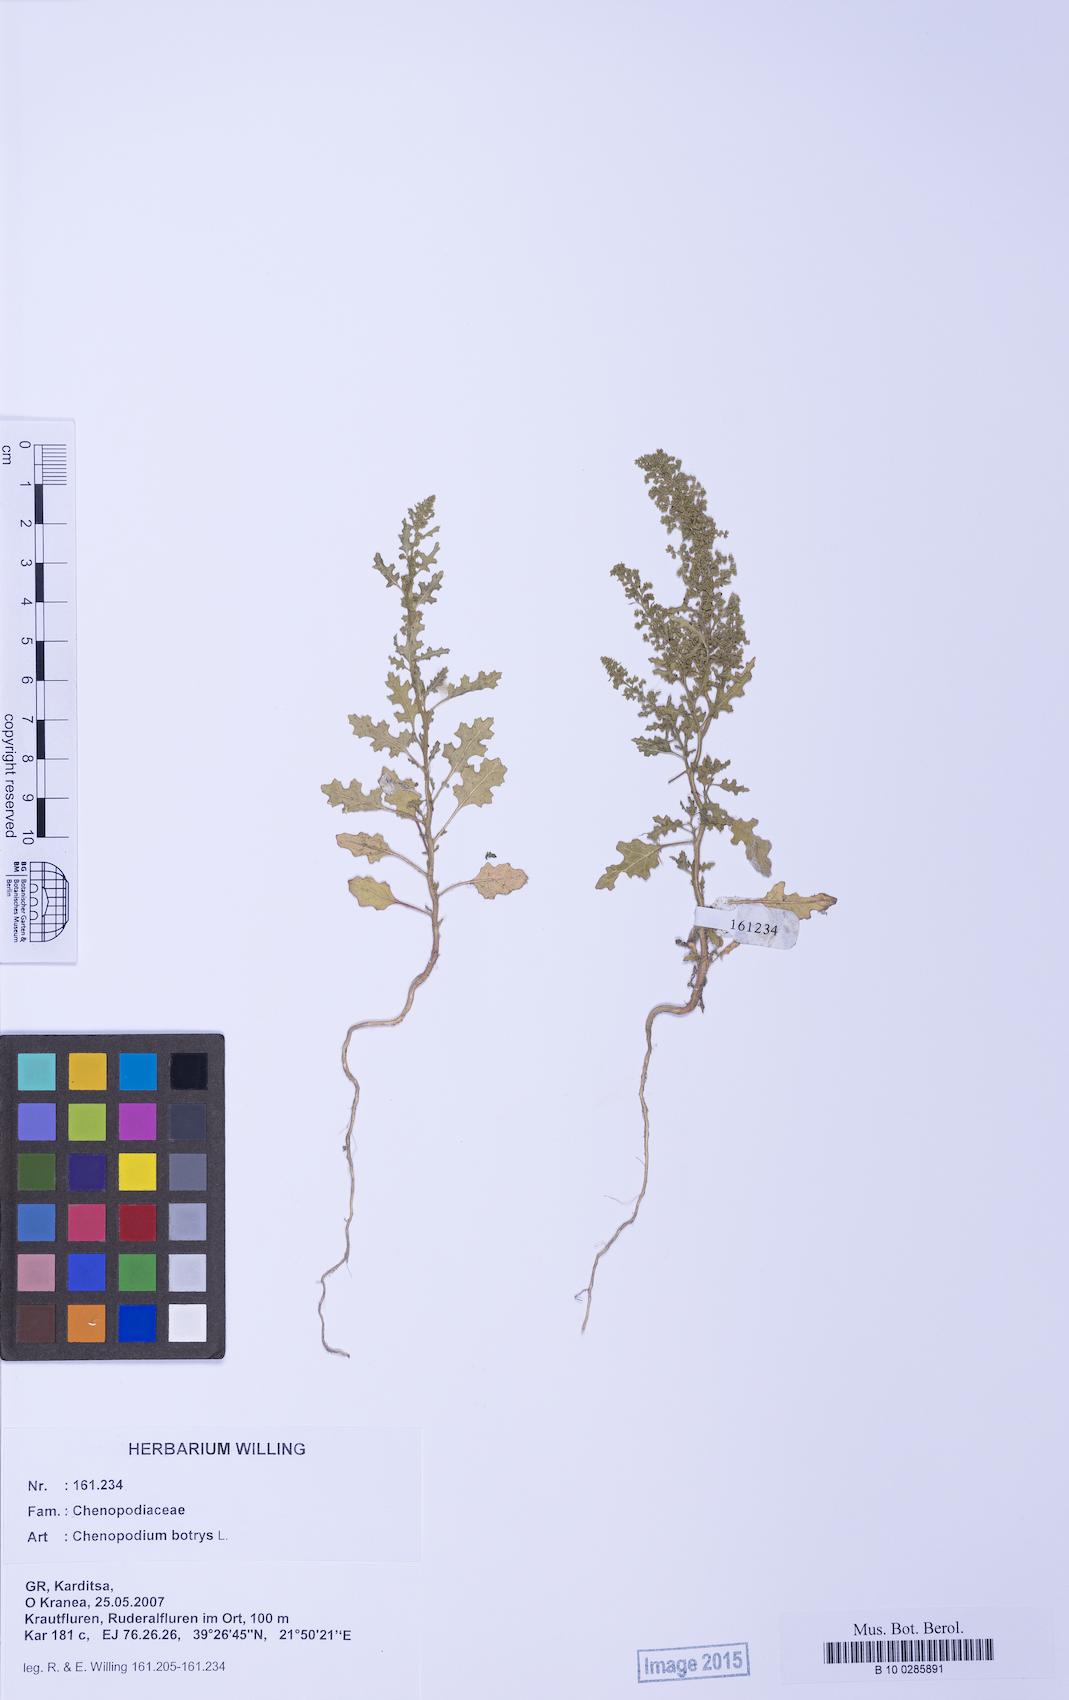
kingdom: Plantae
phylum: Tracheophyta
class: Magnoliopsida
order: Caryophyllales
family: Amaranthaceae
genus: Dysphania
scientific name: Dysphania botrys
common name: Feather-geranium
